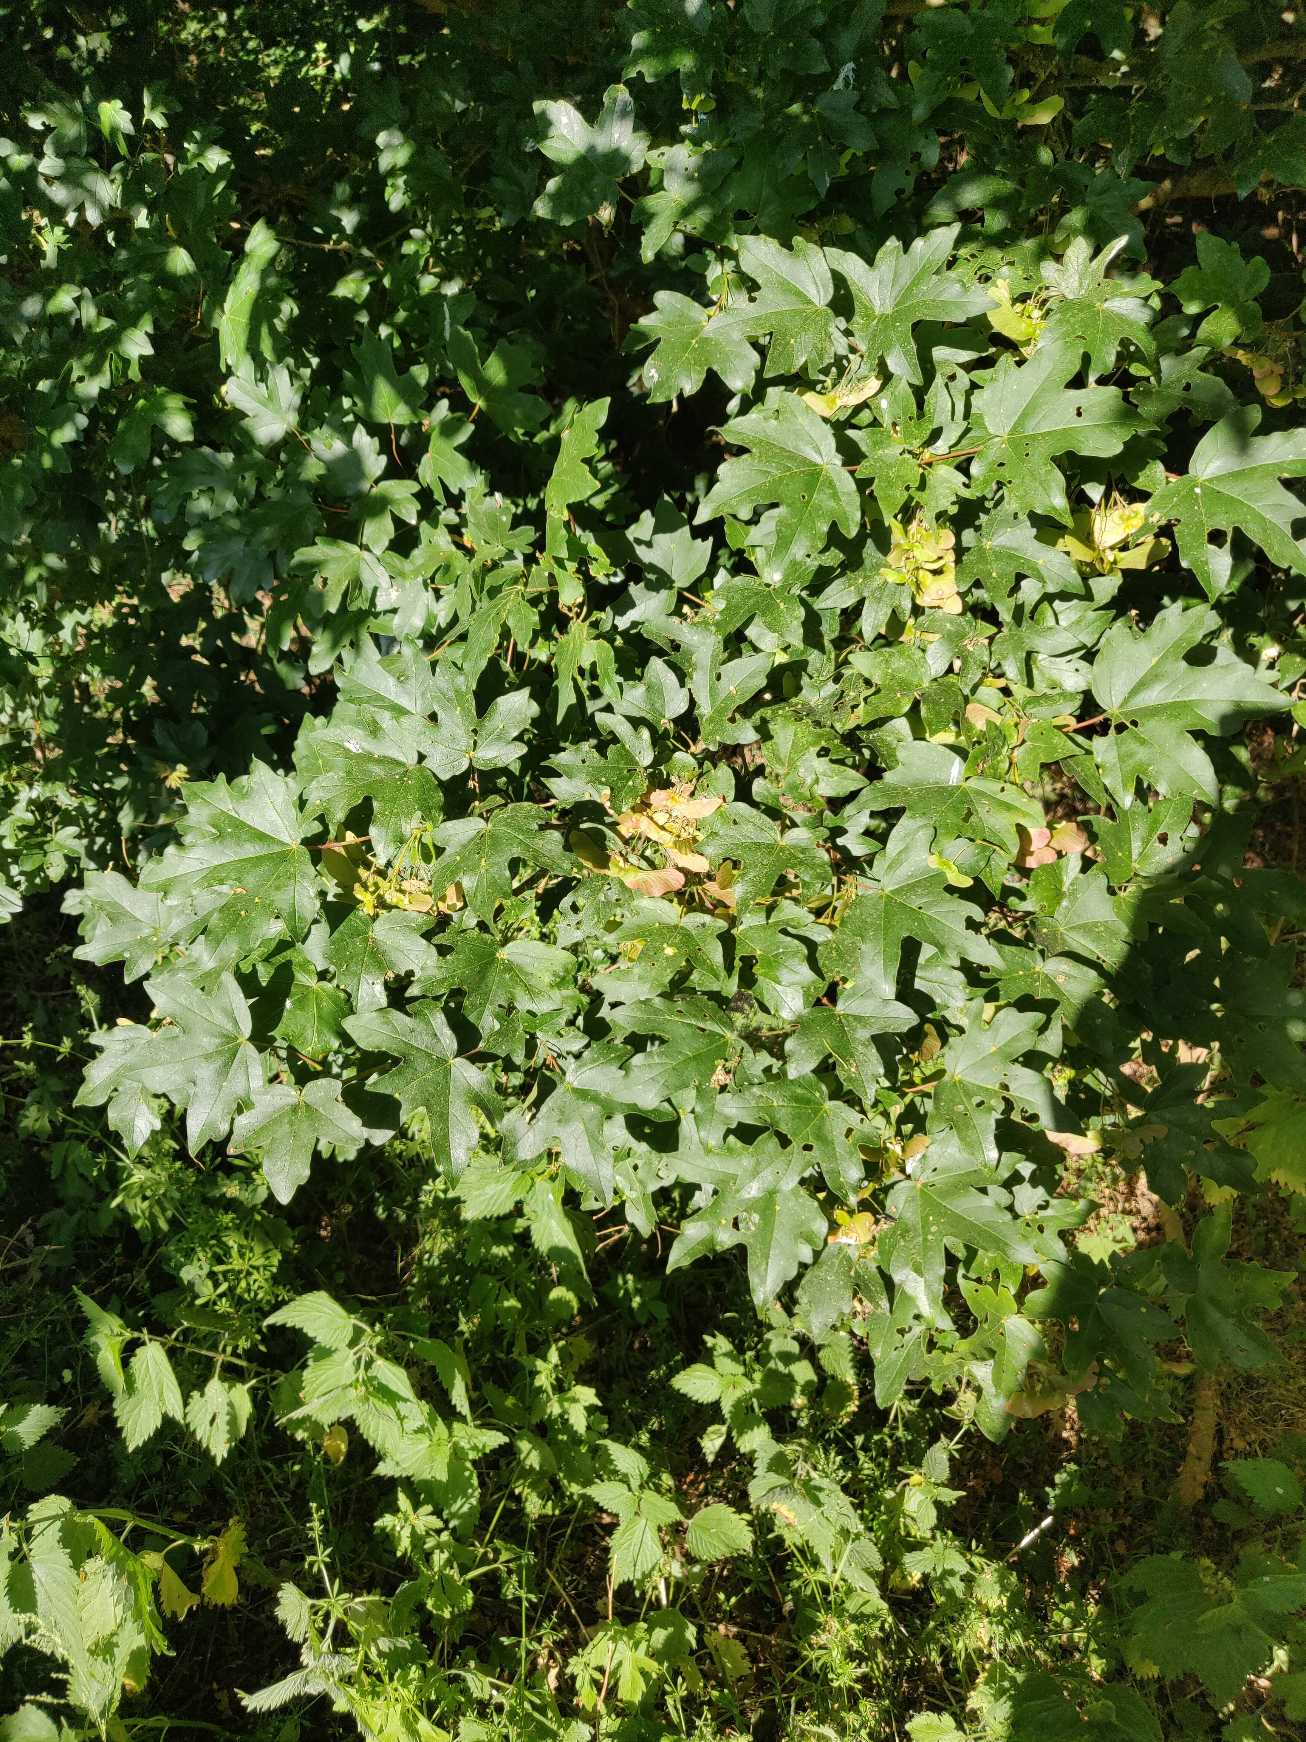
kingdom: Plantae
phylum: Tracheophyta
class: Magnoliopsida
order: Sapindales
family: Sapindaceae
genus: Acer
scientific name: Acer campestre
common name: Navr
